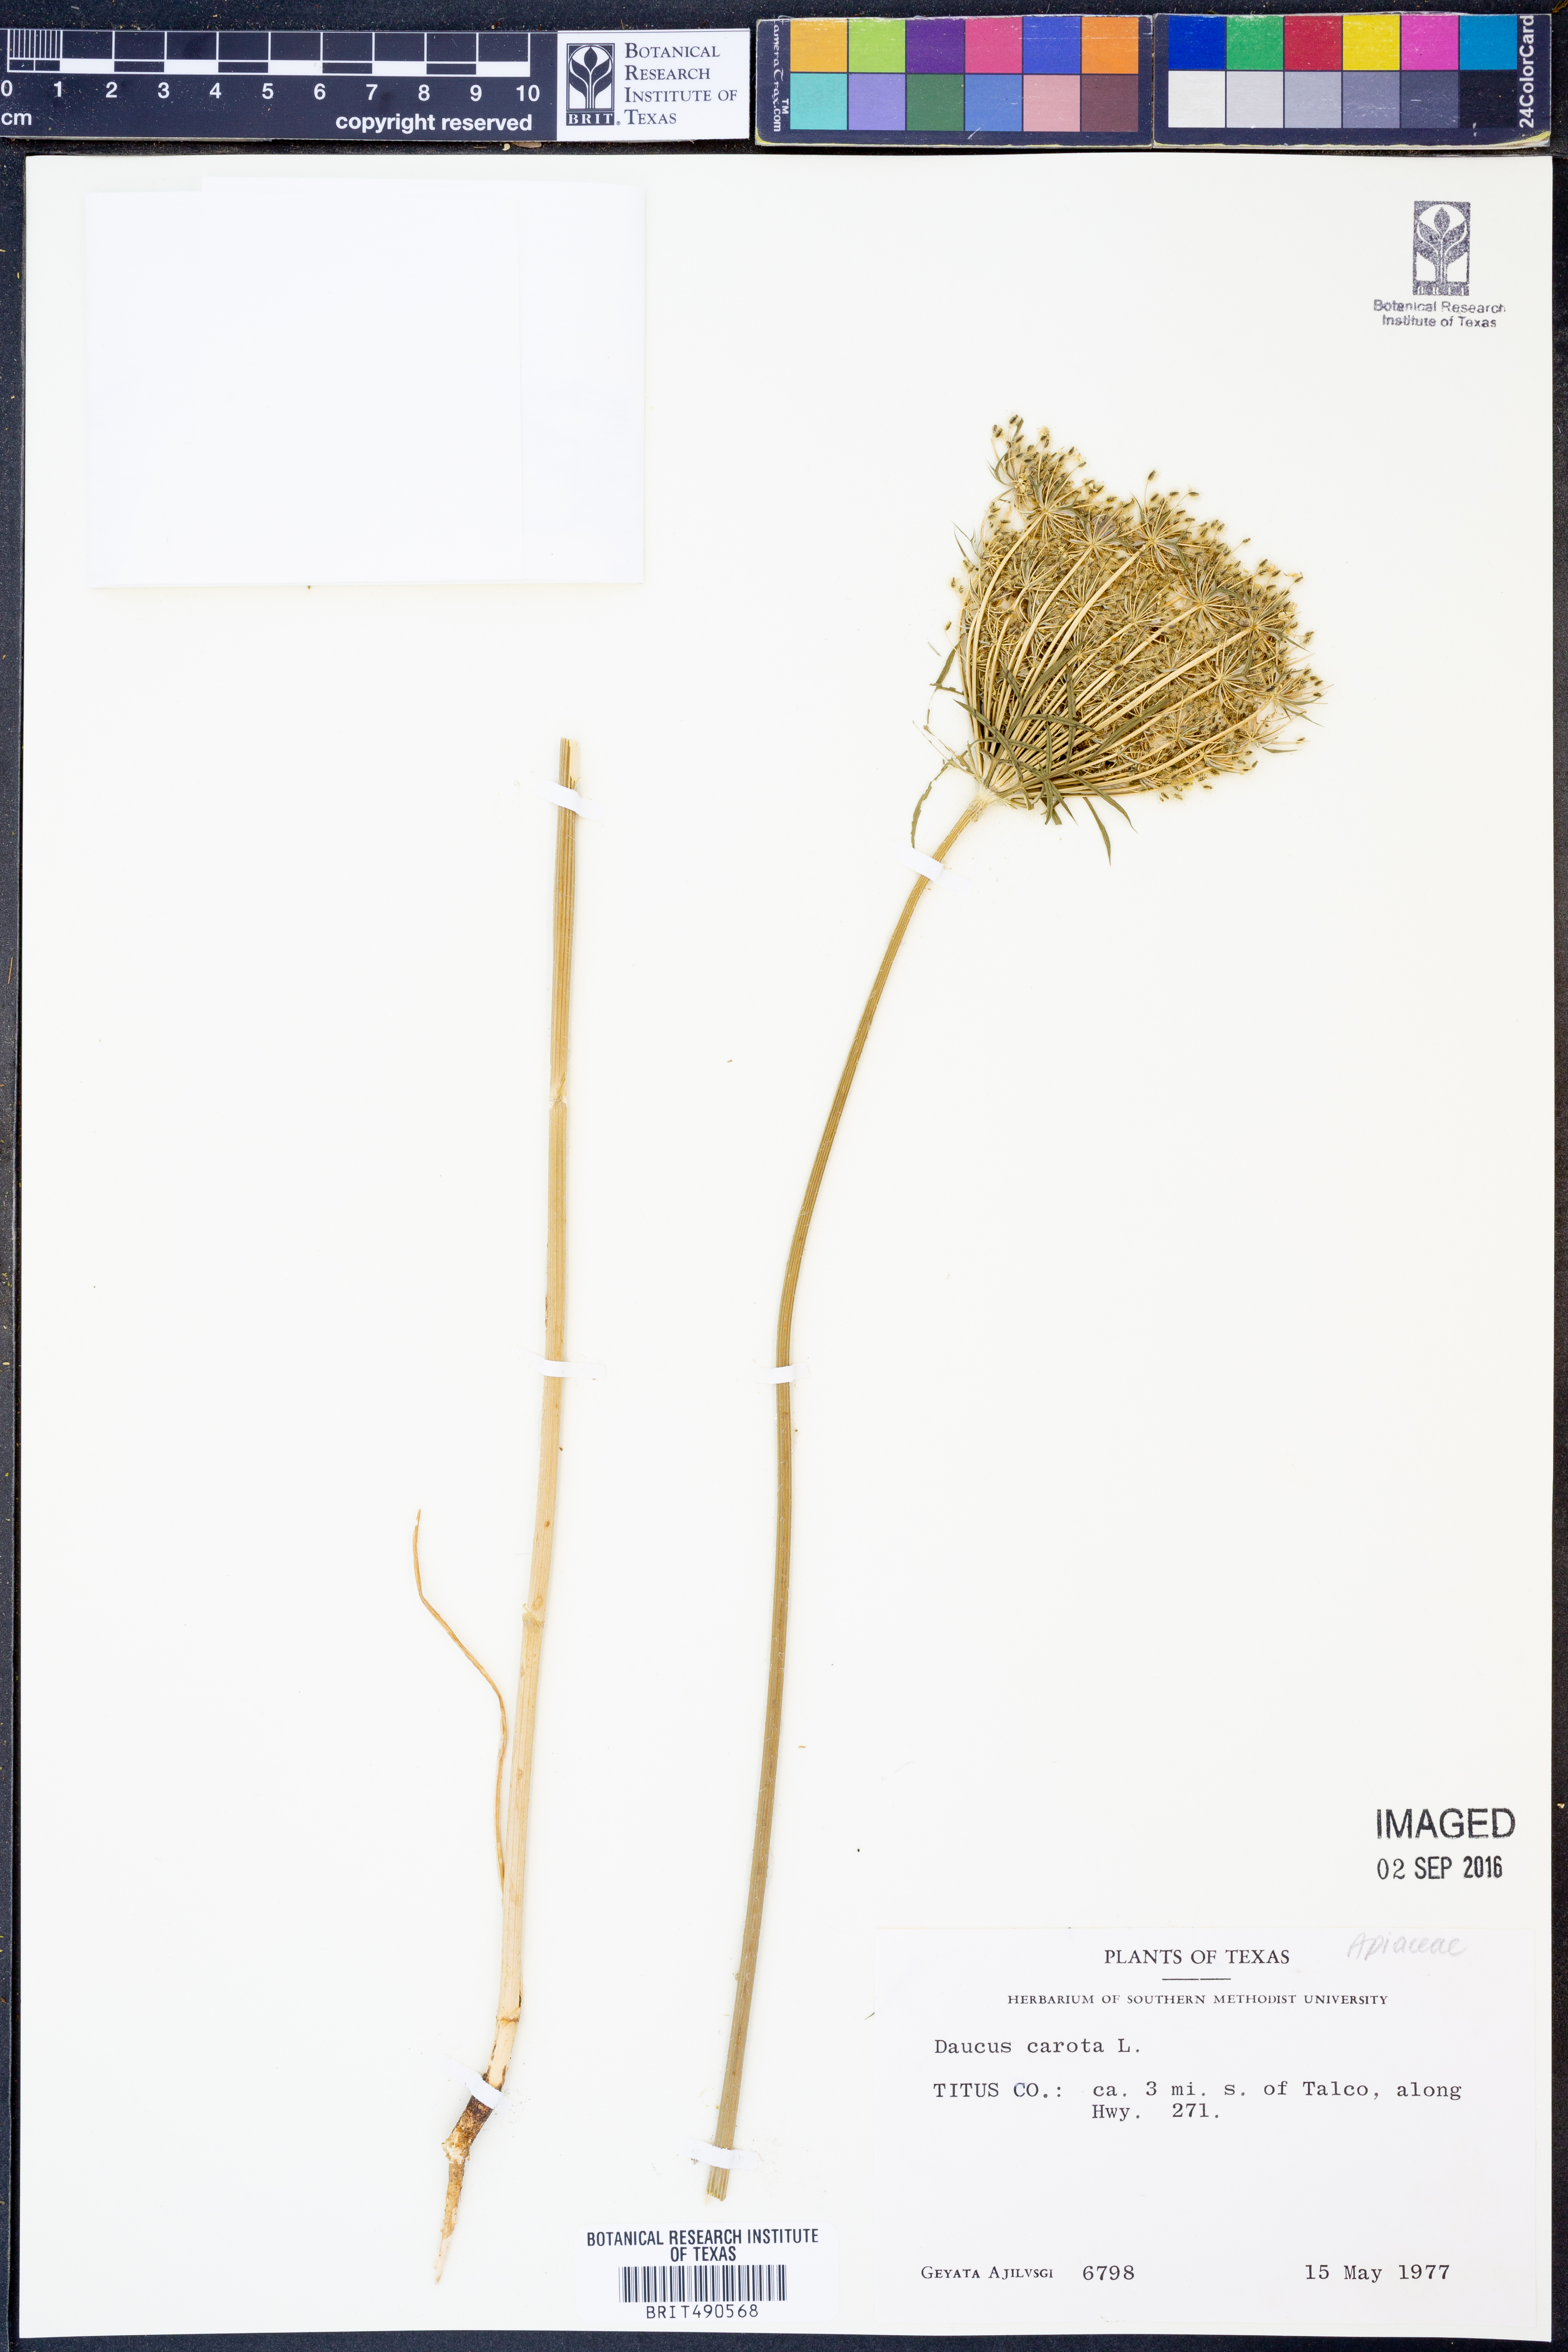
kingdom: Plantae
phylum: Tracheophyta
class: Magnoliopsida
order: Apiales
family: Apiaceae
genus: Daucus
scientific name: Daucus carota
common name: Wild carrot
